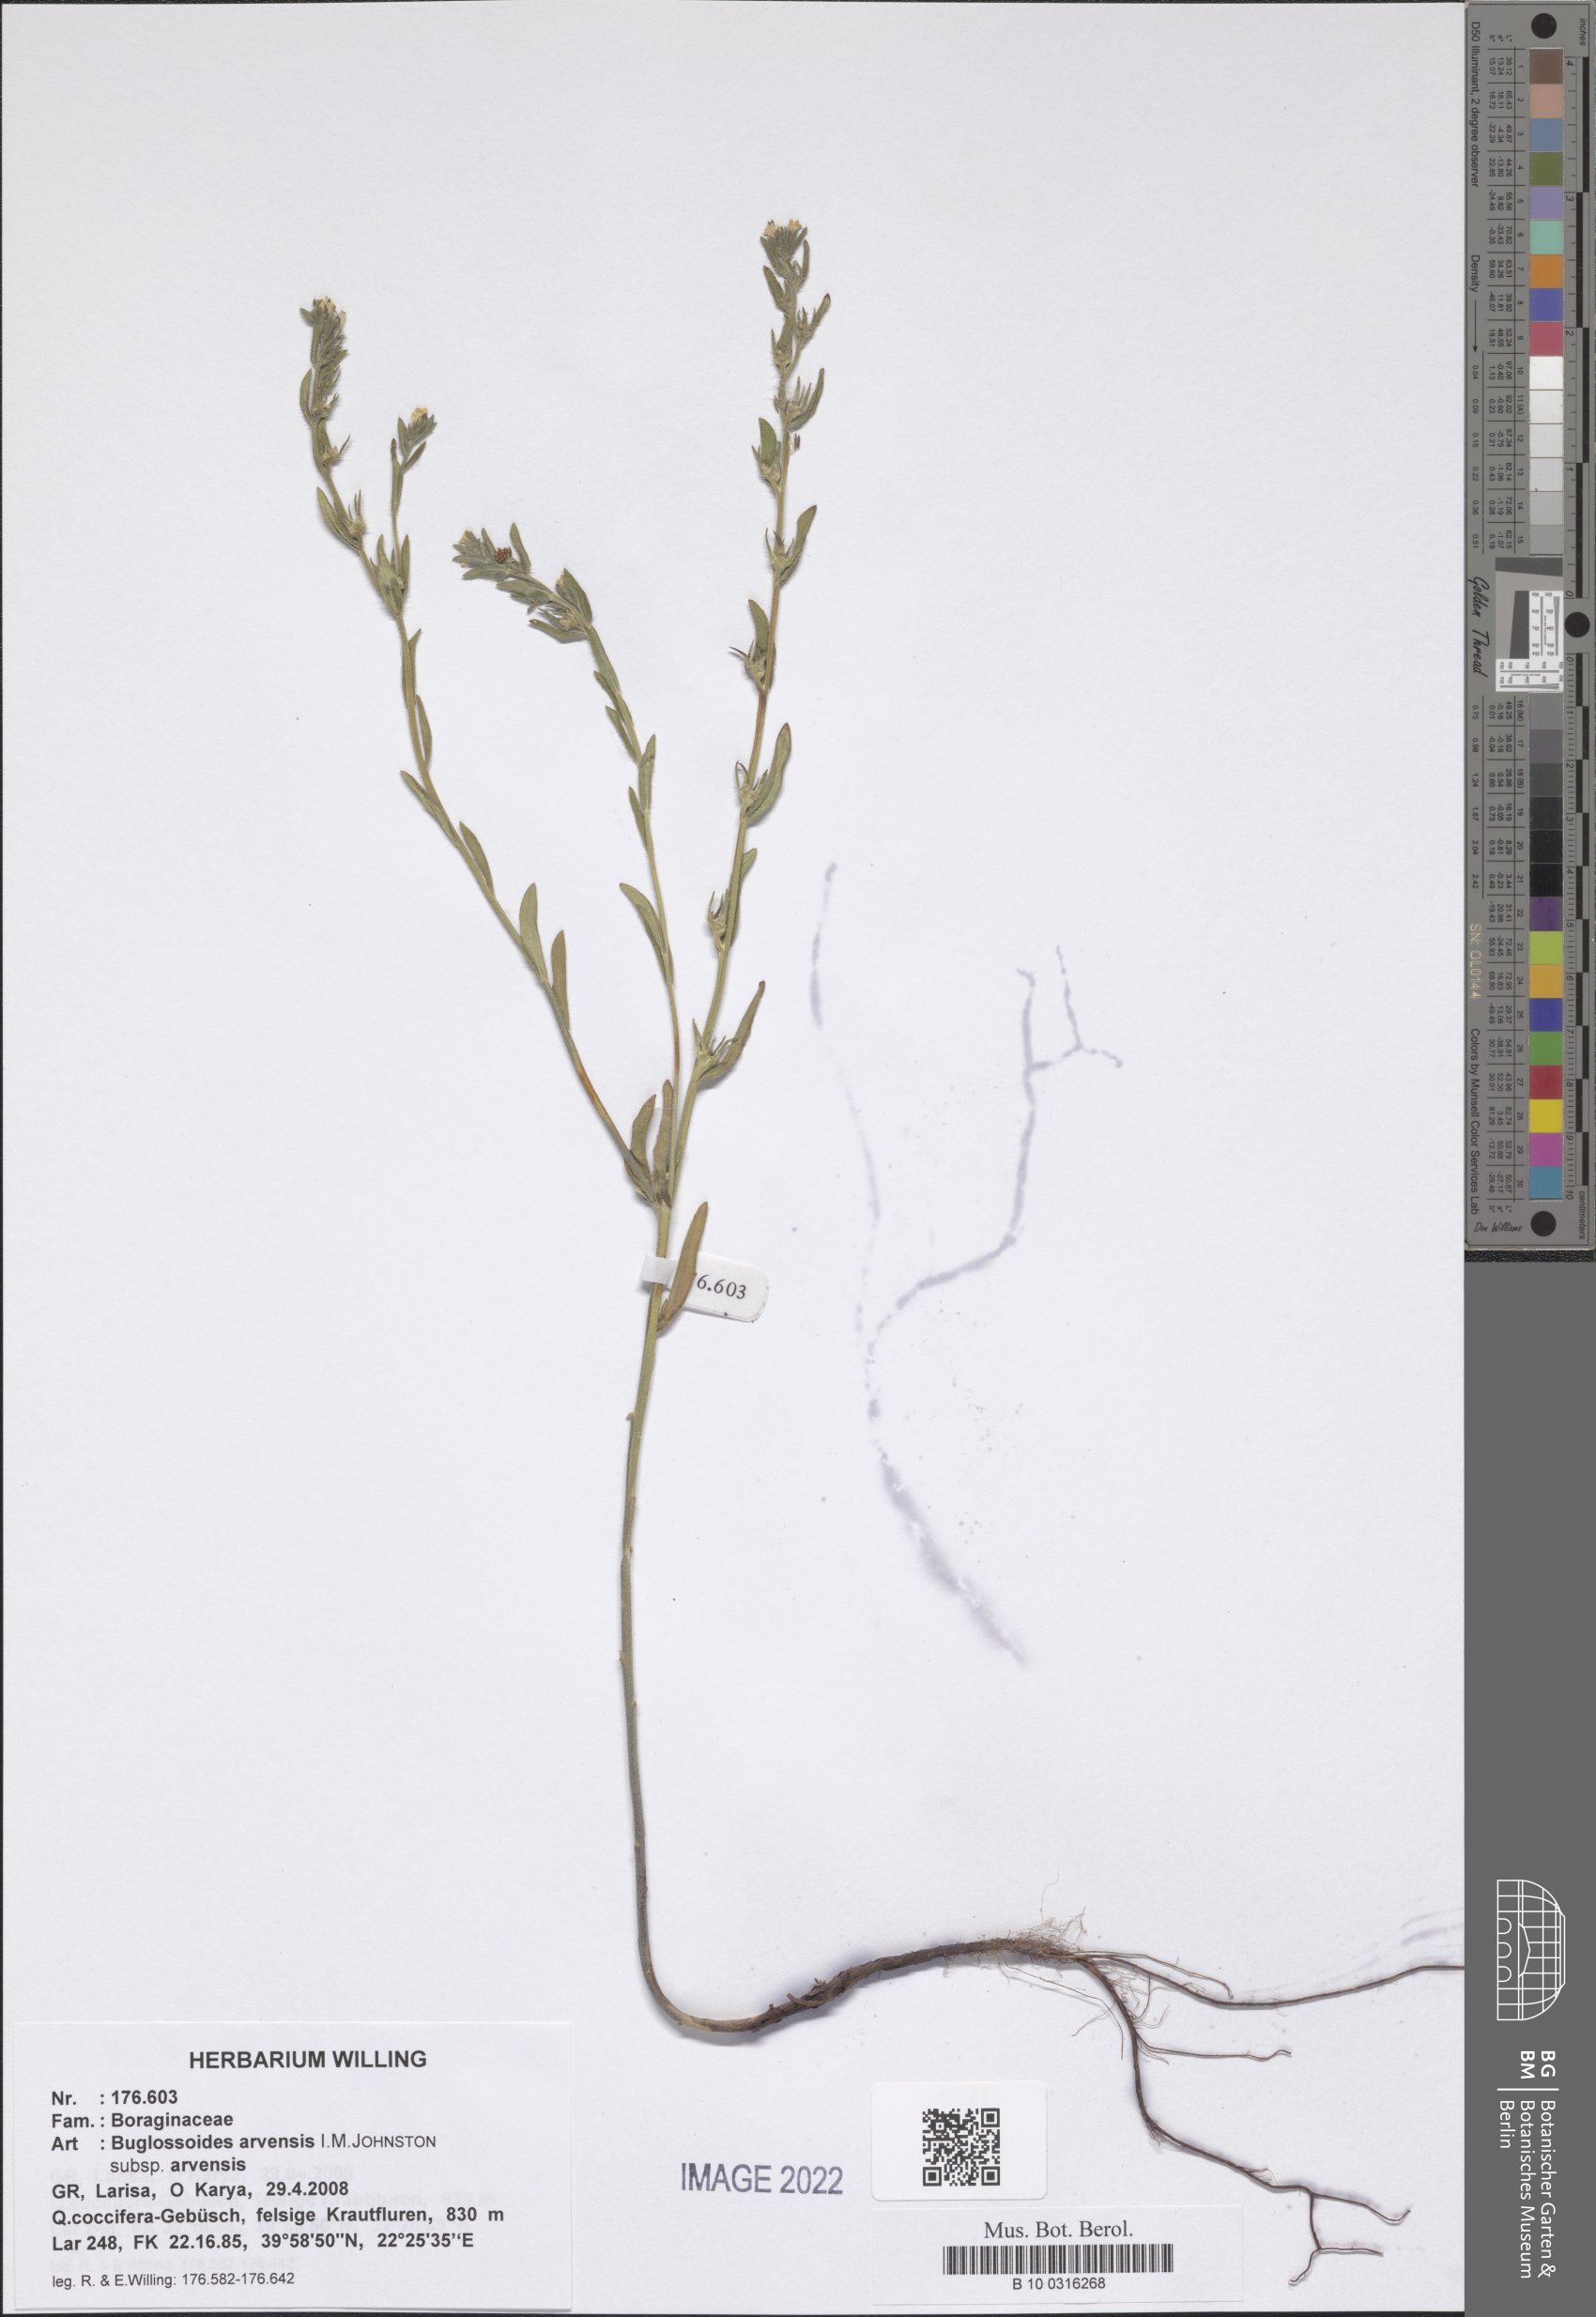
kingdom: Plantae
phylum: Tracheophyta
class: Magnoliopsida
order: Boraginales
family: Boraginaceae
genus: Buglossoides
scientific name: Buglossoides arvensis
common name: Corn gromwell
